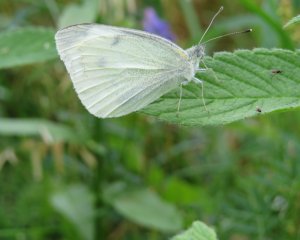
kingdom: Animalia
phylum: Arthropoda
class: Insecta
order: Lepidoptera
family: Pieridae
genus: Pieris
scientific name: Pieris rapae
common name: Cabbage White
